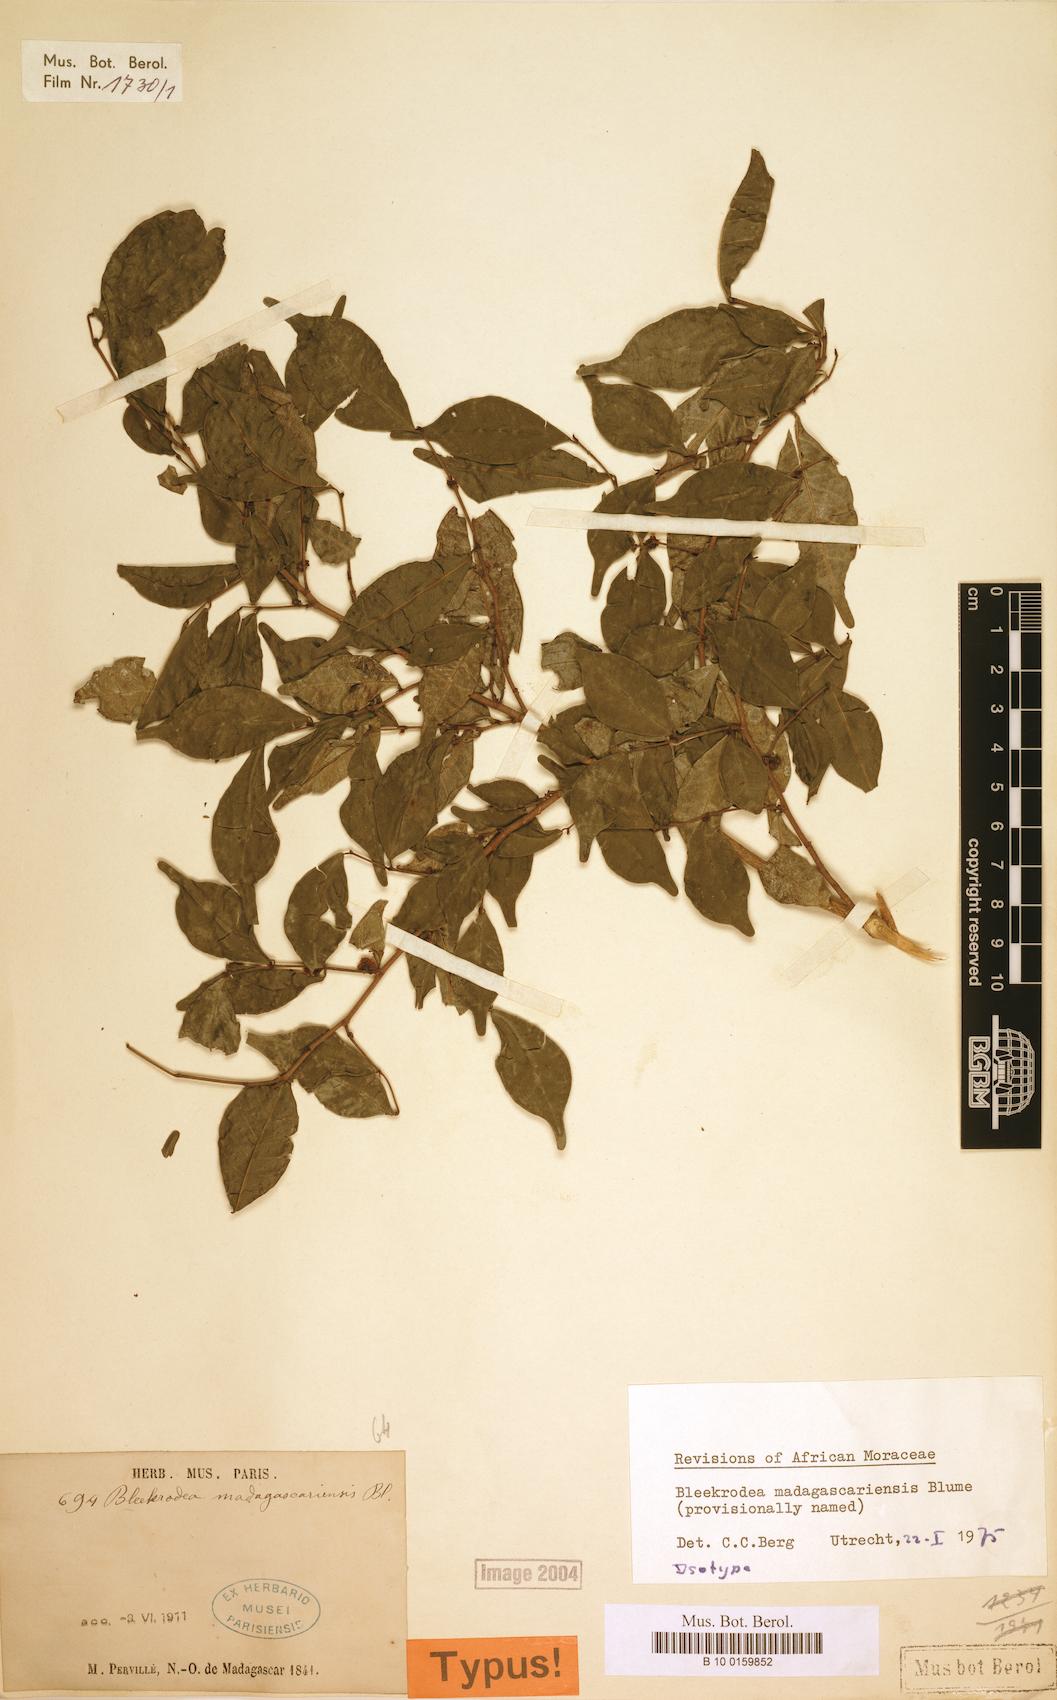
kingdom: Plantae
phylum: Tracheophyta
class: Magnoliopsida
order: Rosales
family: Moraceae
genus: Bleekrodea
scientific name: Bleekrodea madagascariensis
